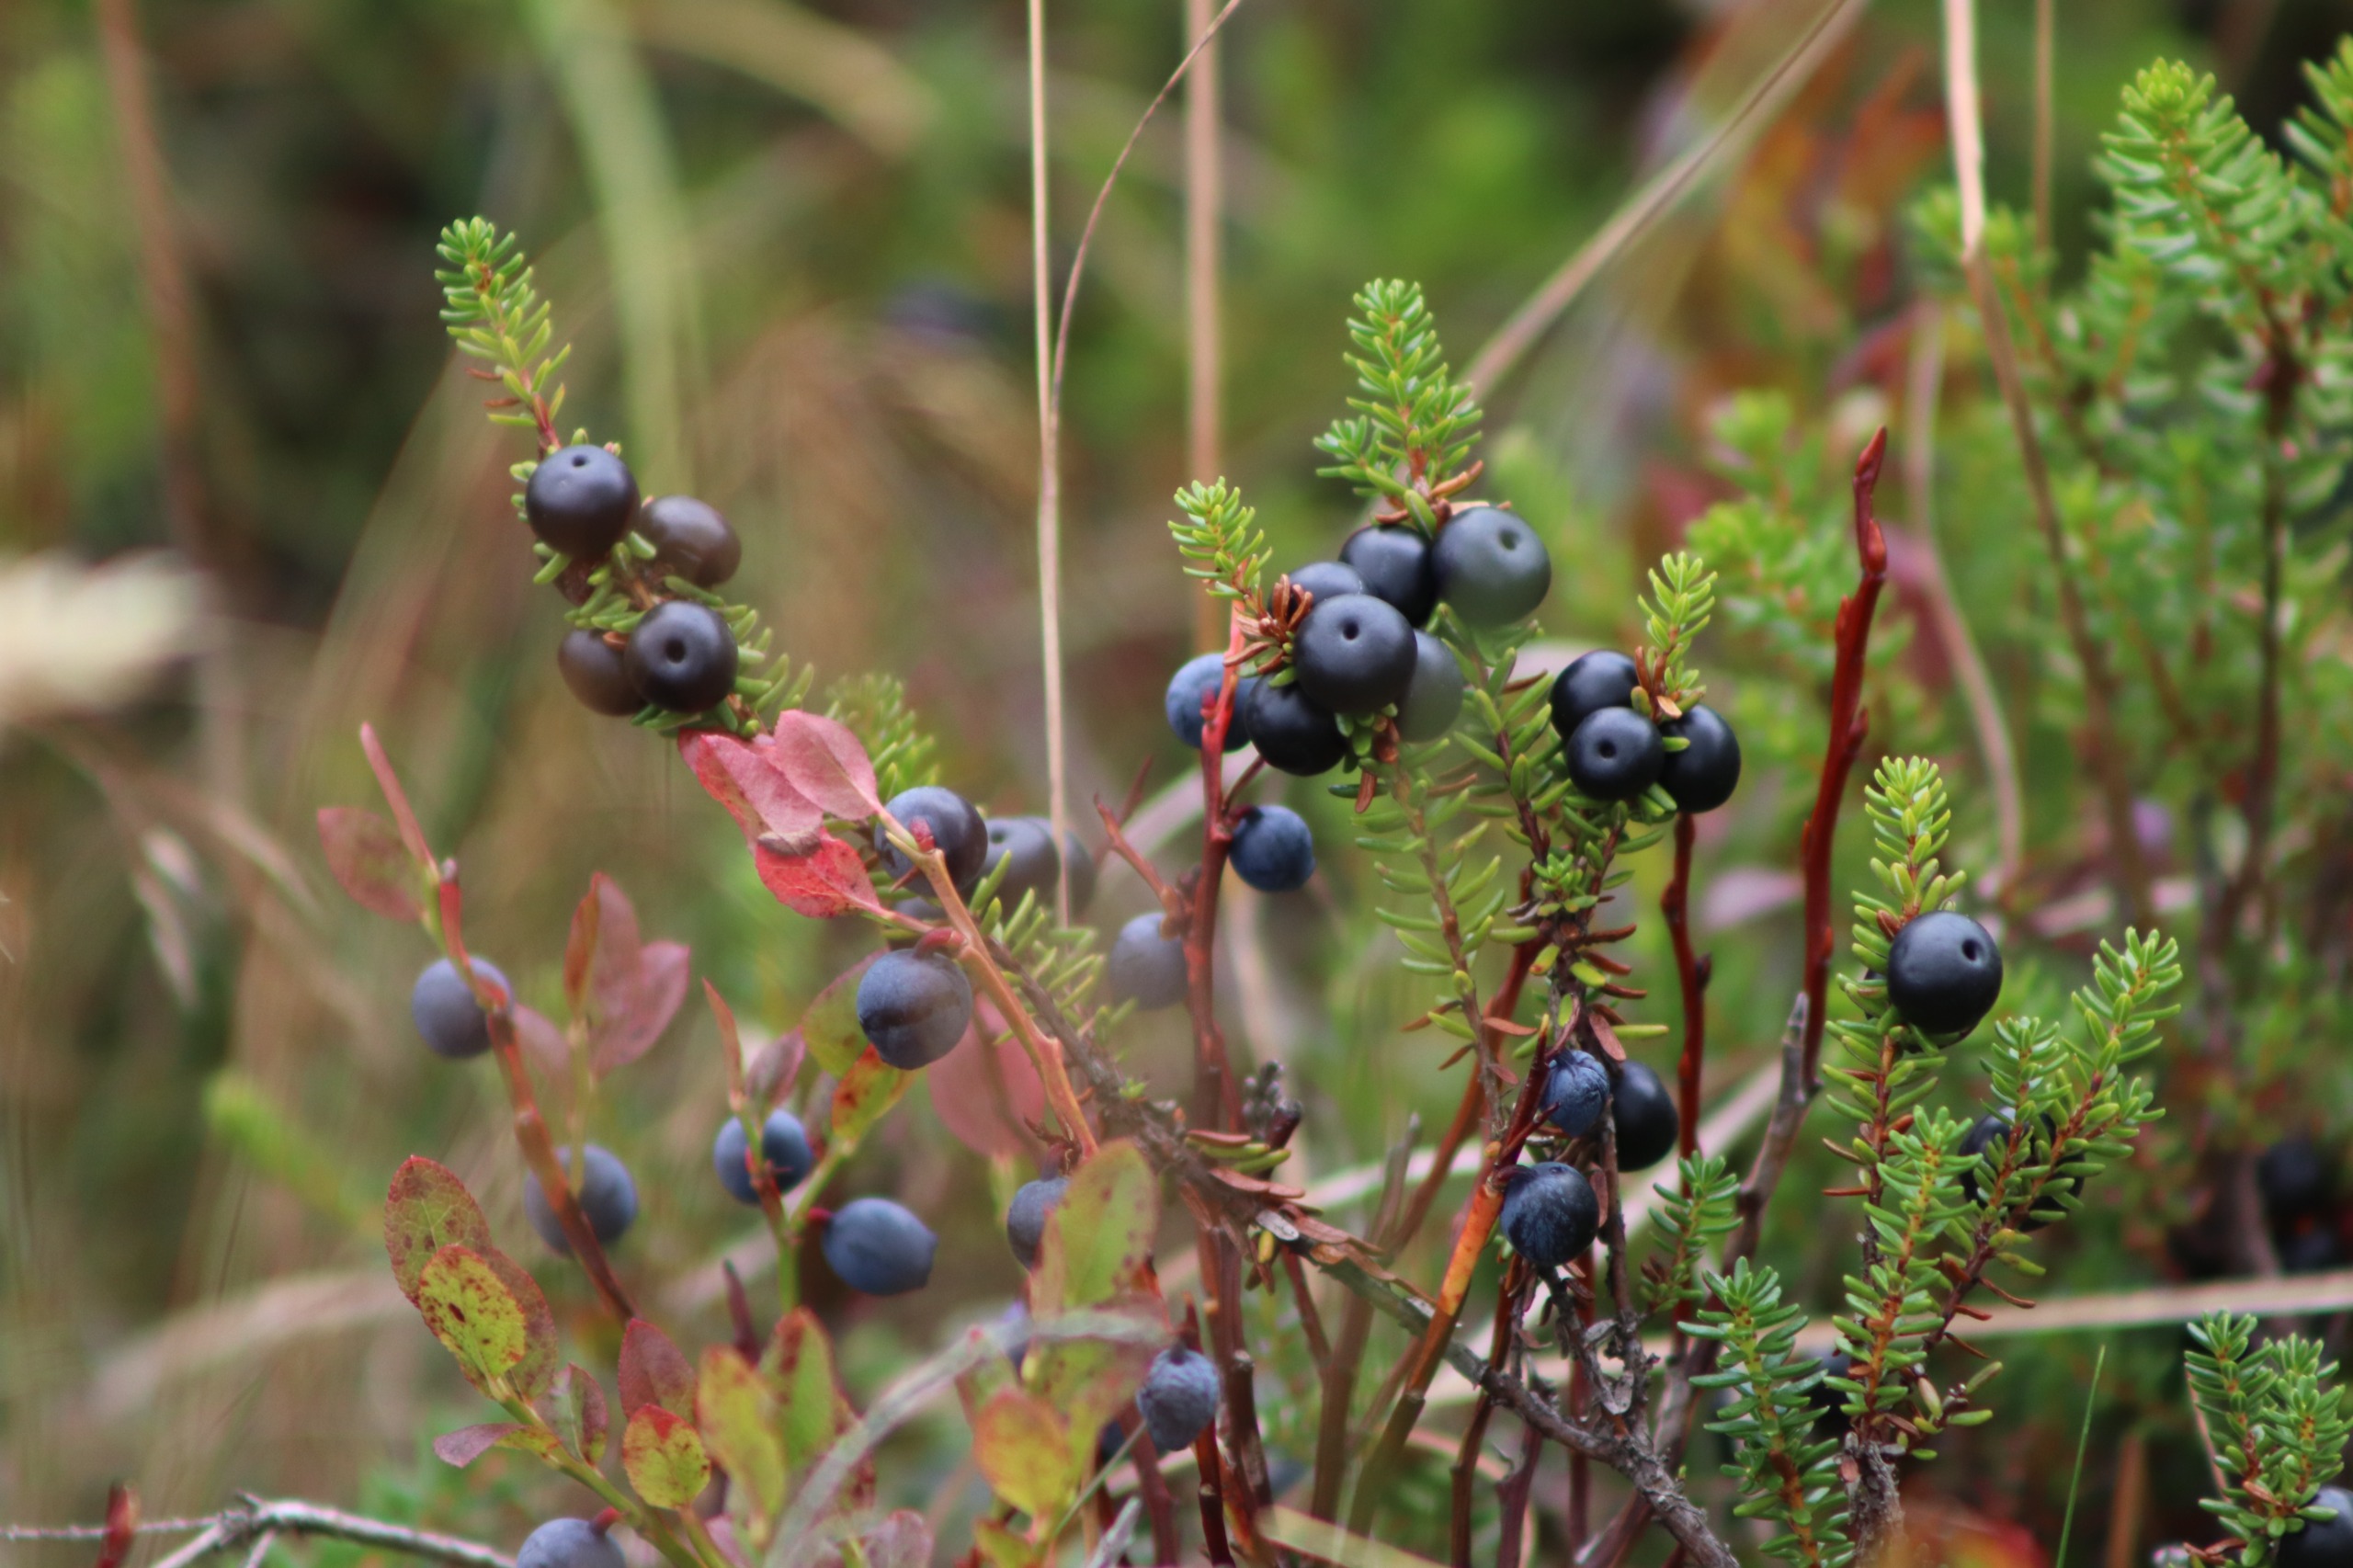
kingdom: Plantae
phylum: Tracheophyta
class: Magnoliopsida
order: Ericales
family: Ericaceae
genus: Empetrum
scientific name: Empetrum nigrum
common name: Revling
